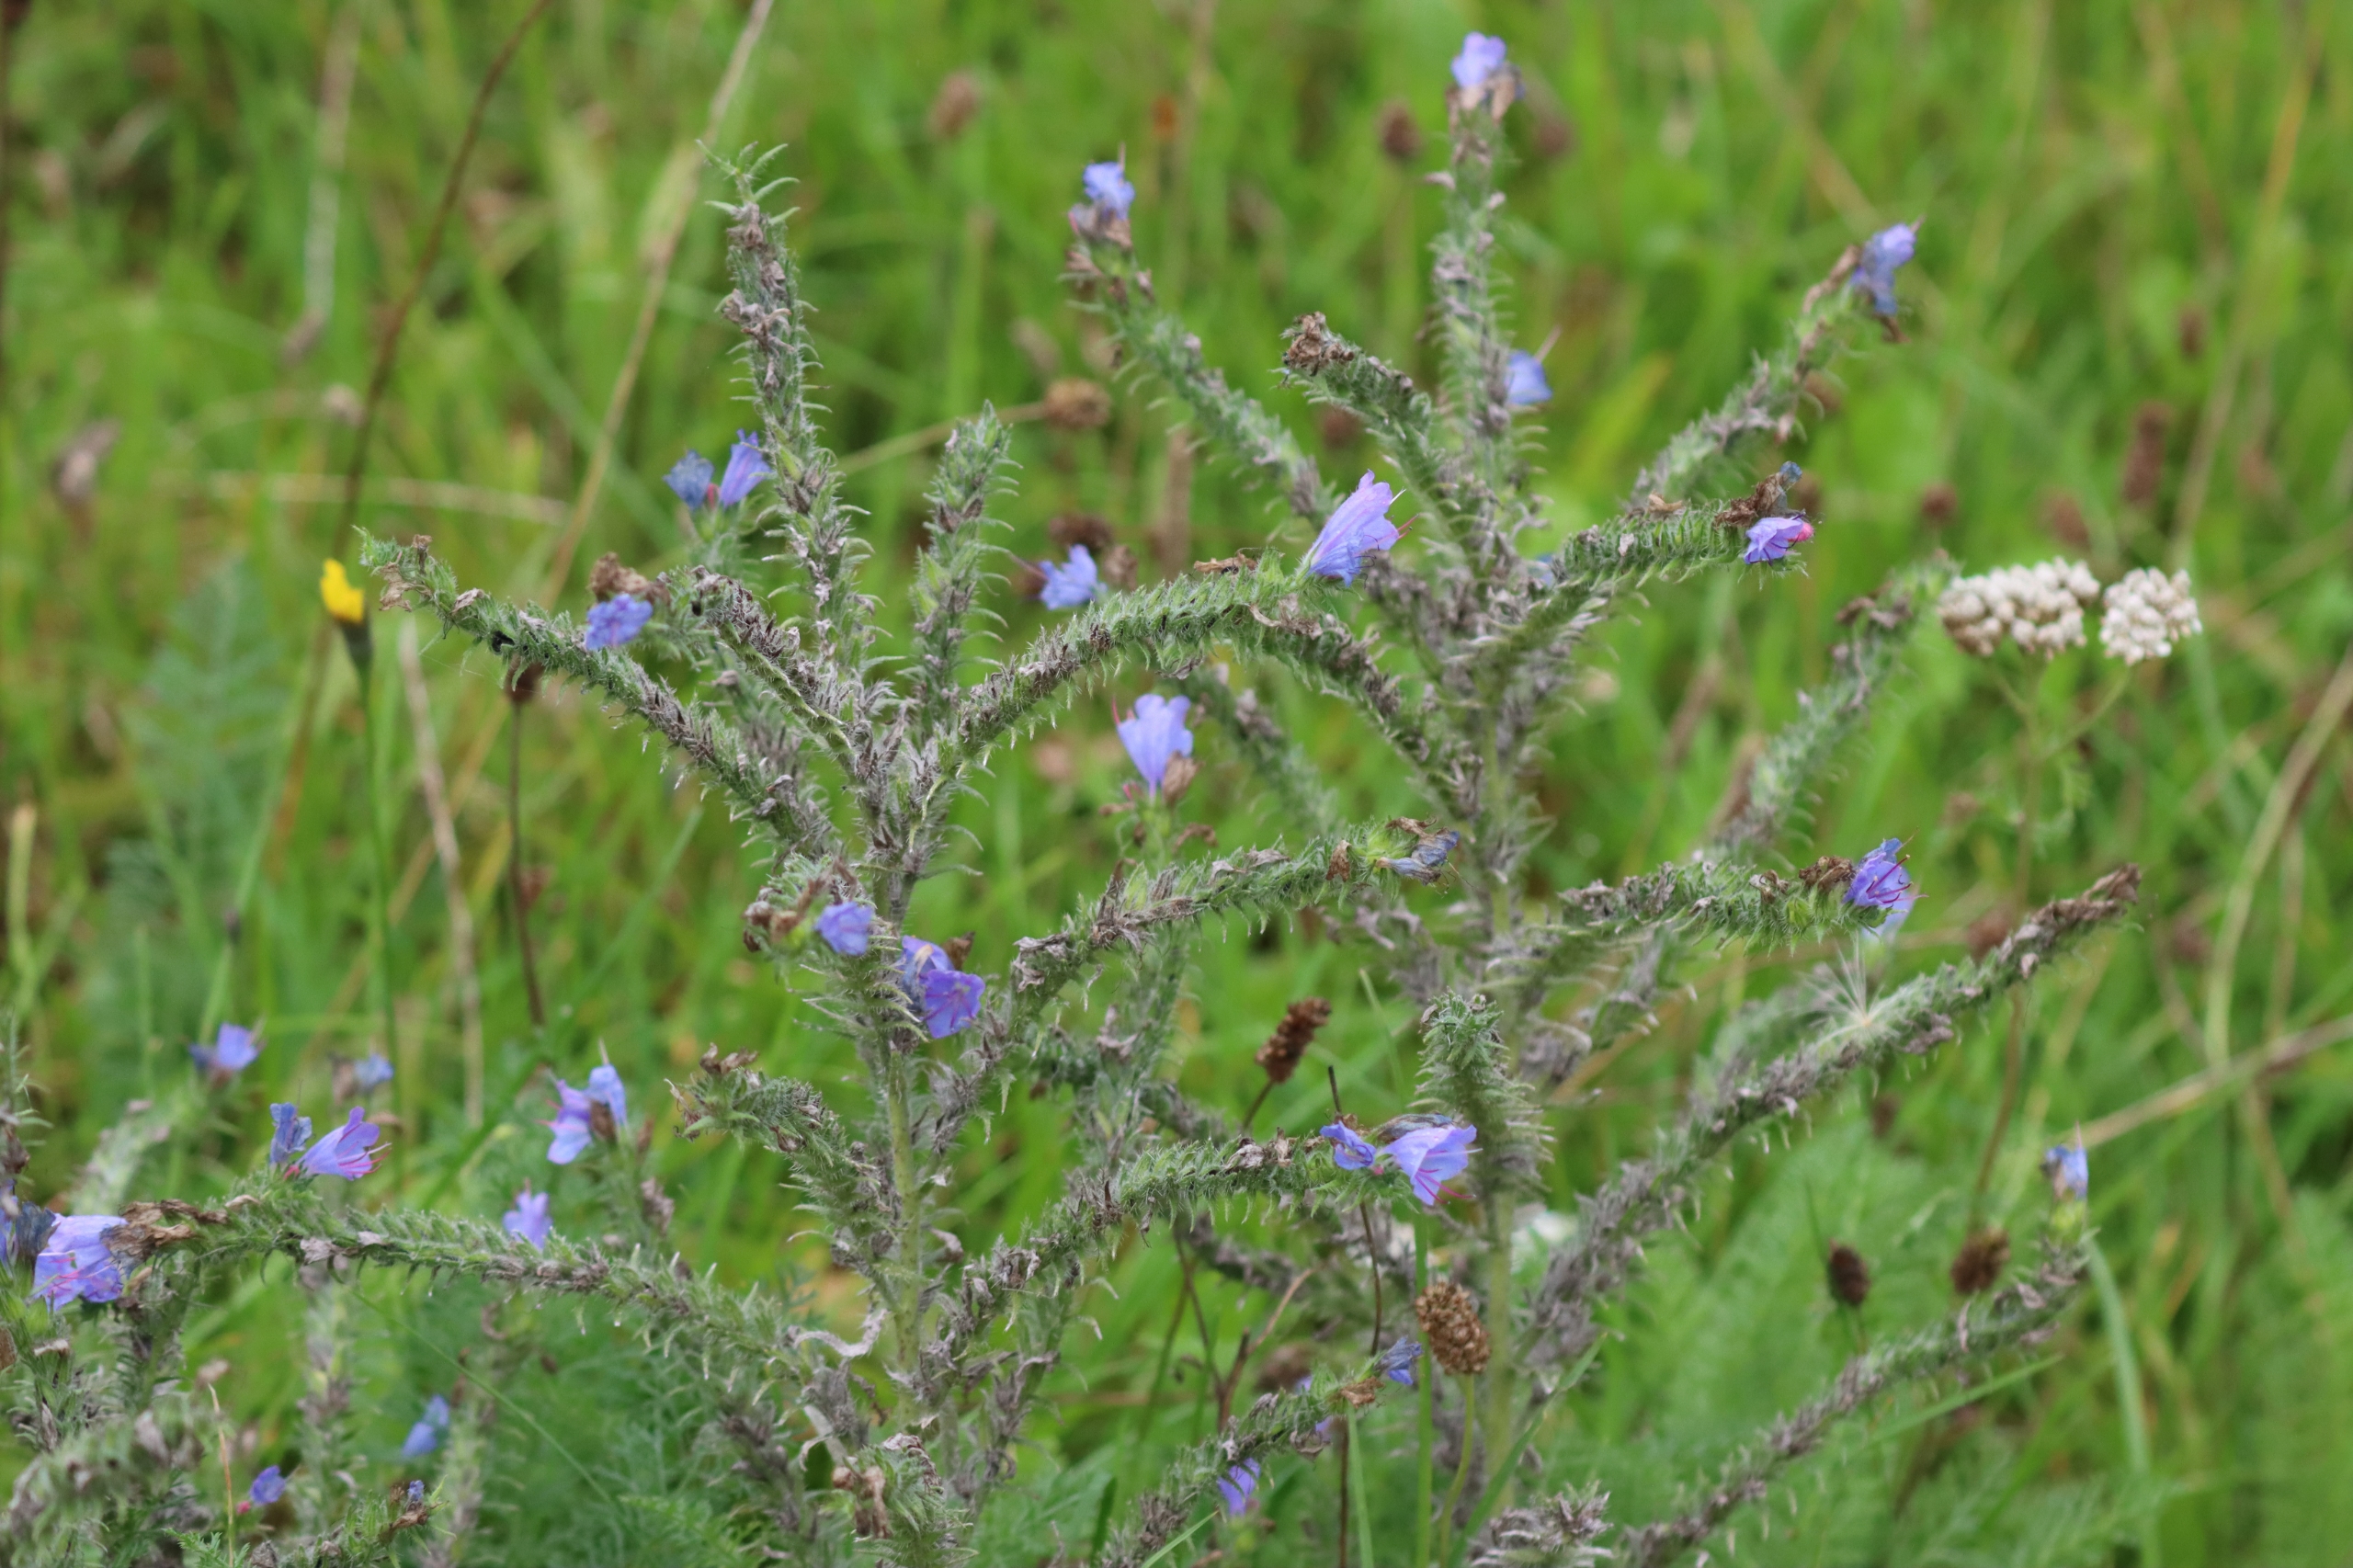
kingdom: Plantae
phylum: Tracheophyta
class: Magnoliopsida
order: Boraginales
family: Boraginaceae
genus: Echium
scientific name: Echium vulgare
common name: Slangehoved
